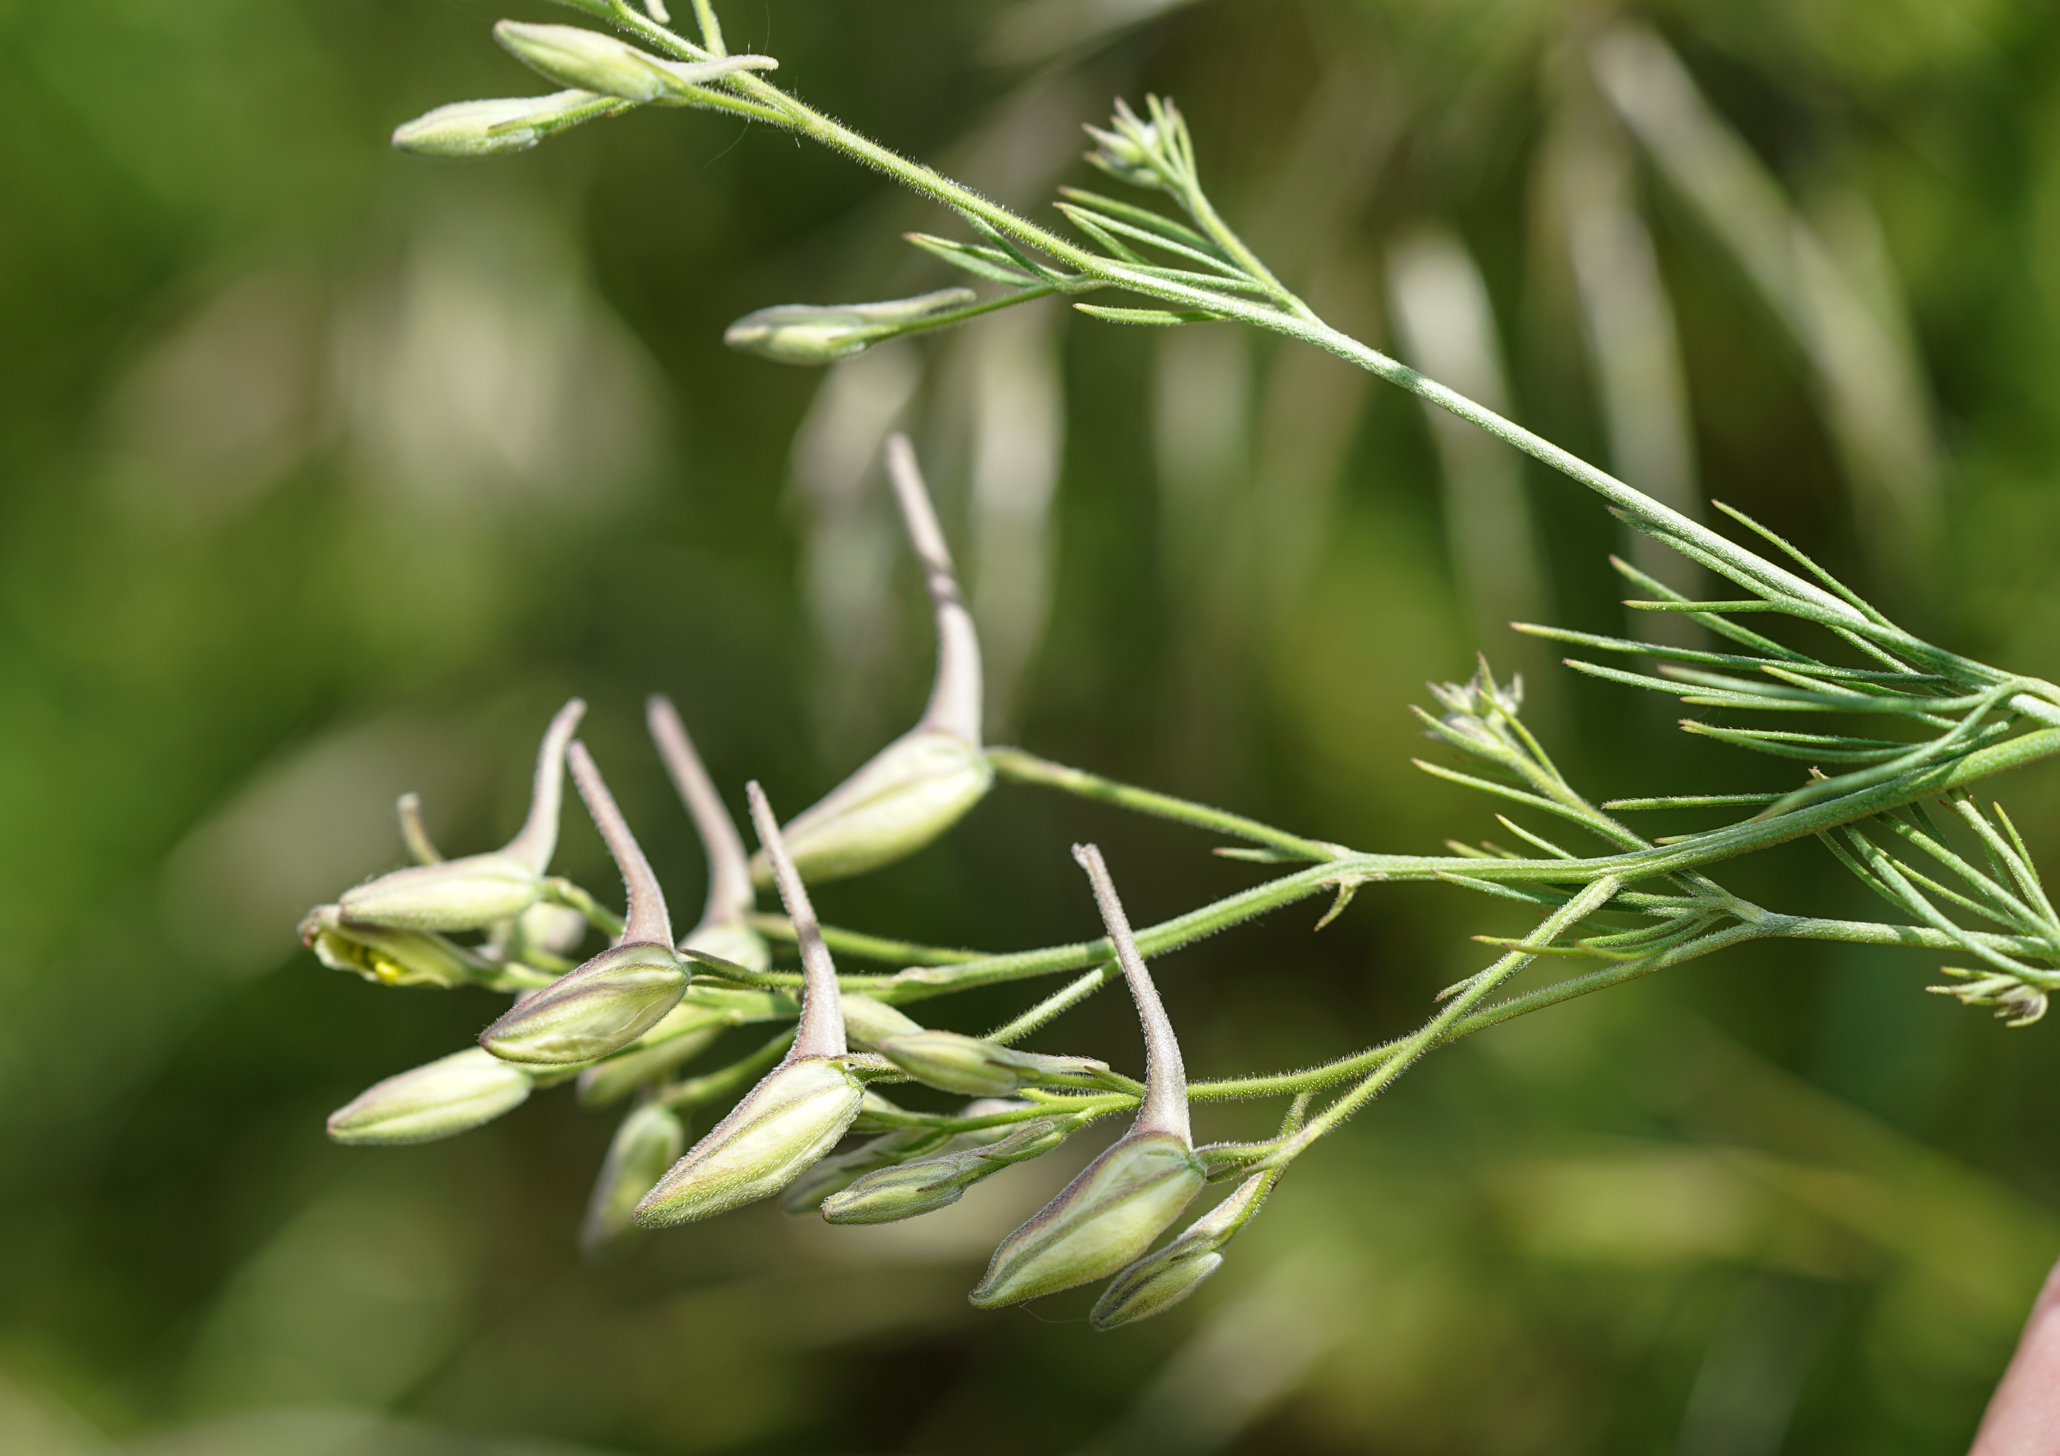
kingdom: Plantae
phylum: Tracheophyta
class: Magnoliopsida
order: Ranunculales
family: Ranunculaceae
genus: Delphinium
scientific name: Delphinium consolida
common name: Branching larkspur
